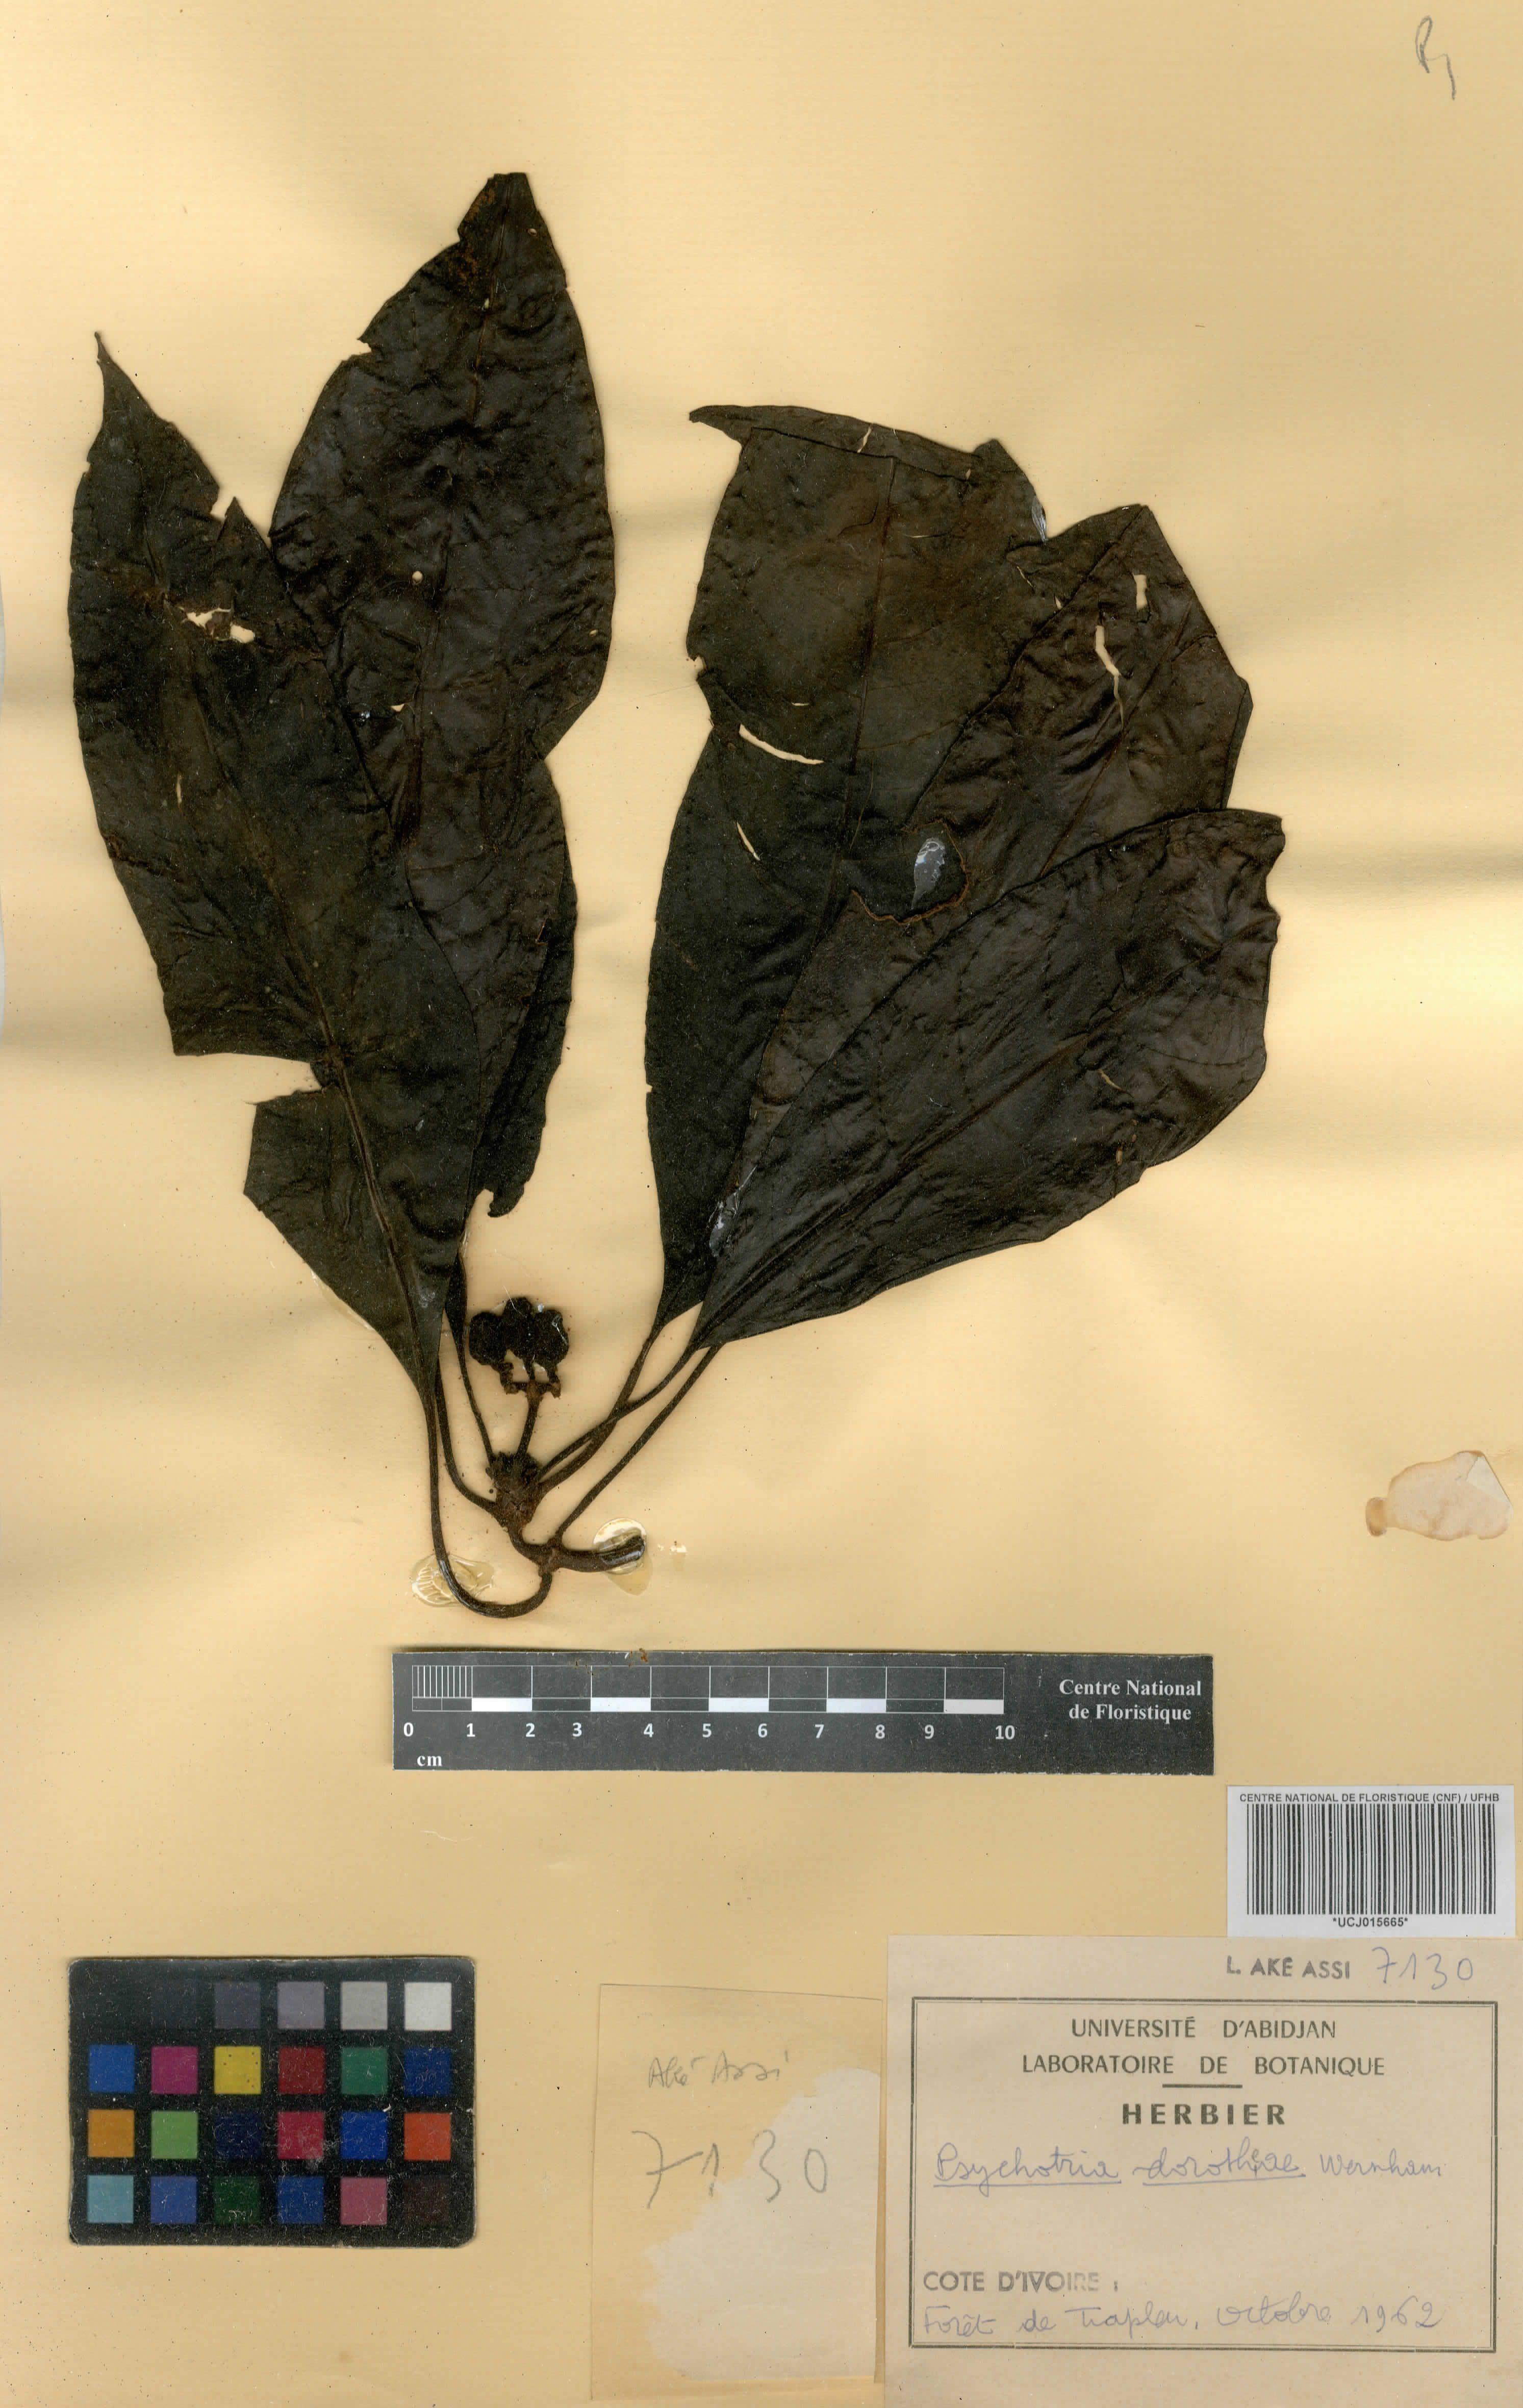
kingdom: Plantae
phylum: Tracheophyta
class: Magnoliopsida
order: Gentianales
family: Rubiaceae
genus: Psychotria
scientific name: Psychotria dorotheae
